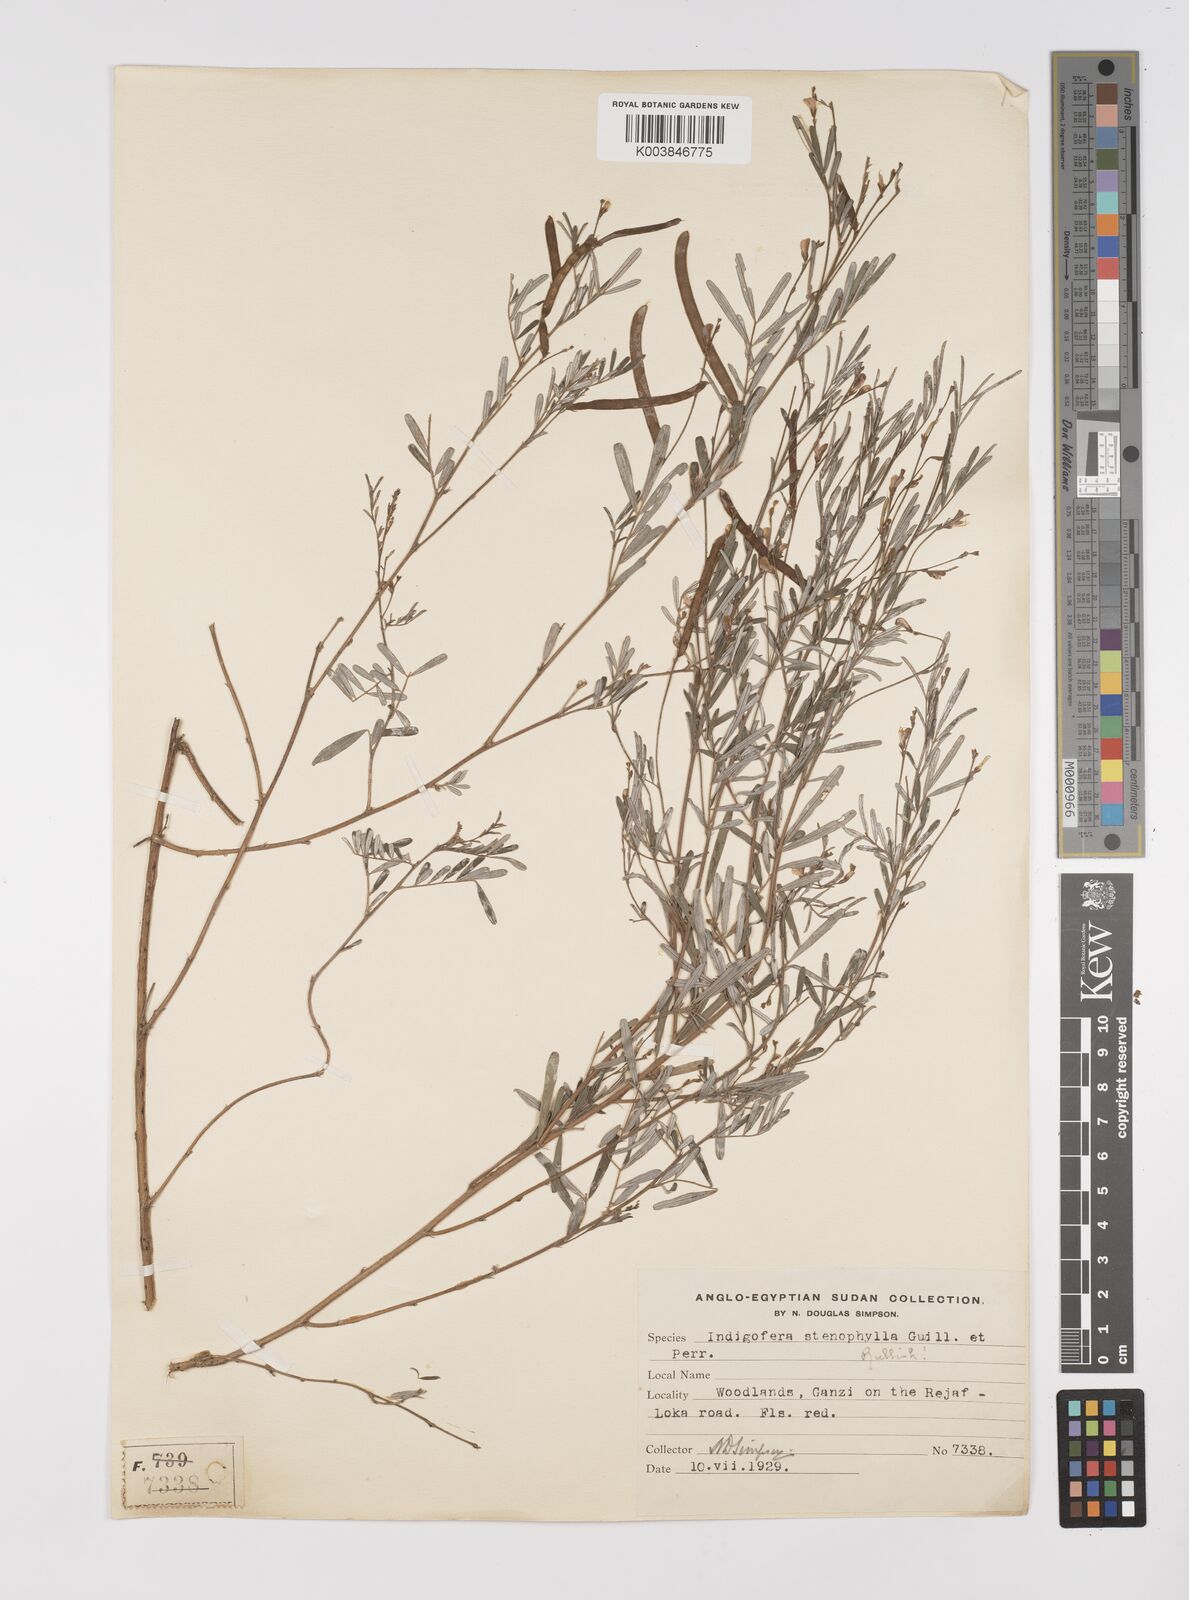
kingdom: Plantae
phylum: Tracheophyta
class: Magnoliopsida
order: Fabales
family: Fabaceae
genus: Tephrosia
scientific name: Tephrosia linearis
